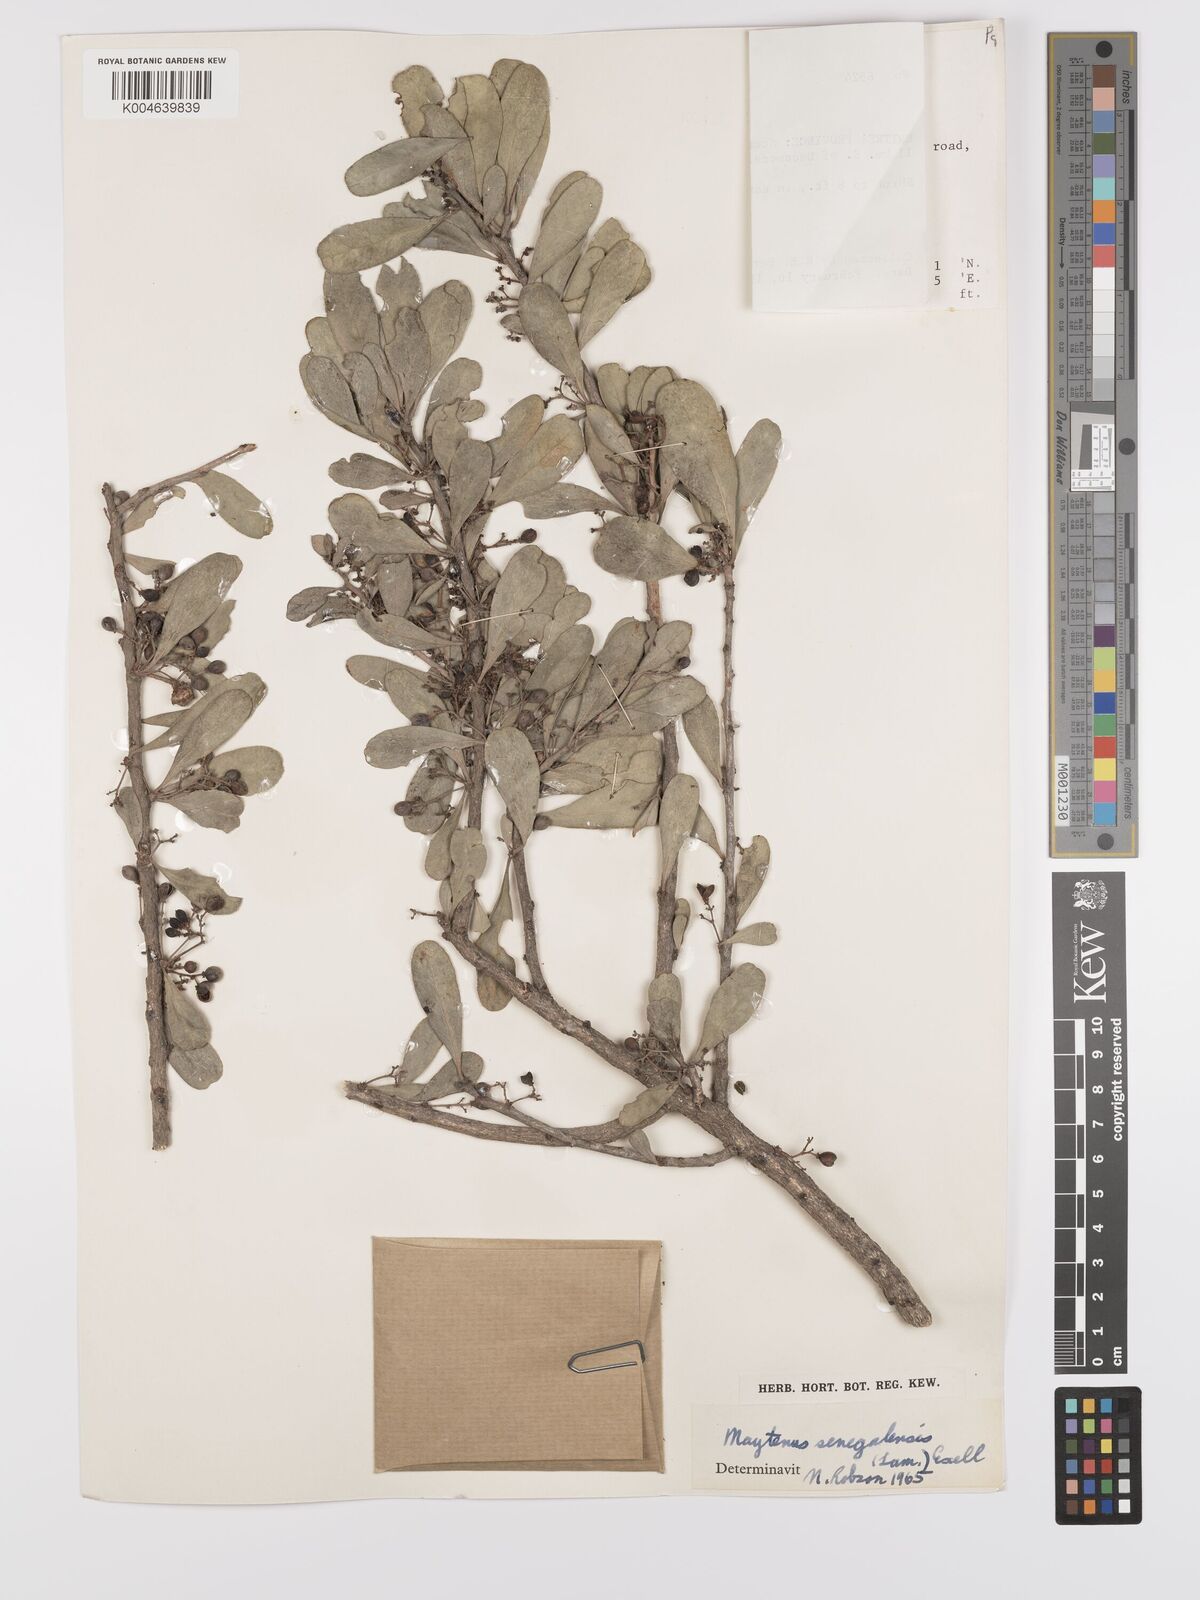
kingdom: Plantae
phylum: Tracheophyta
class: Magnoliopsida
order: Celastrales
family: Celastraceae
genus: Gymnosporia
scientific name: Gymnosporia senegalensis
